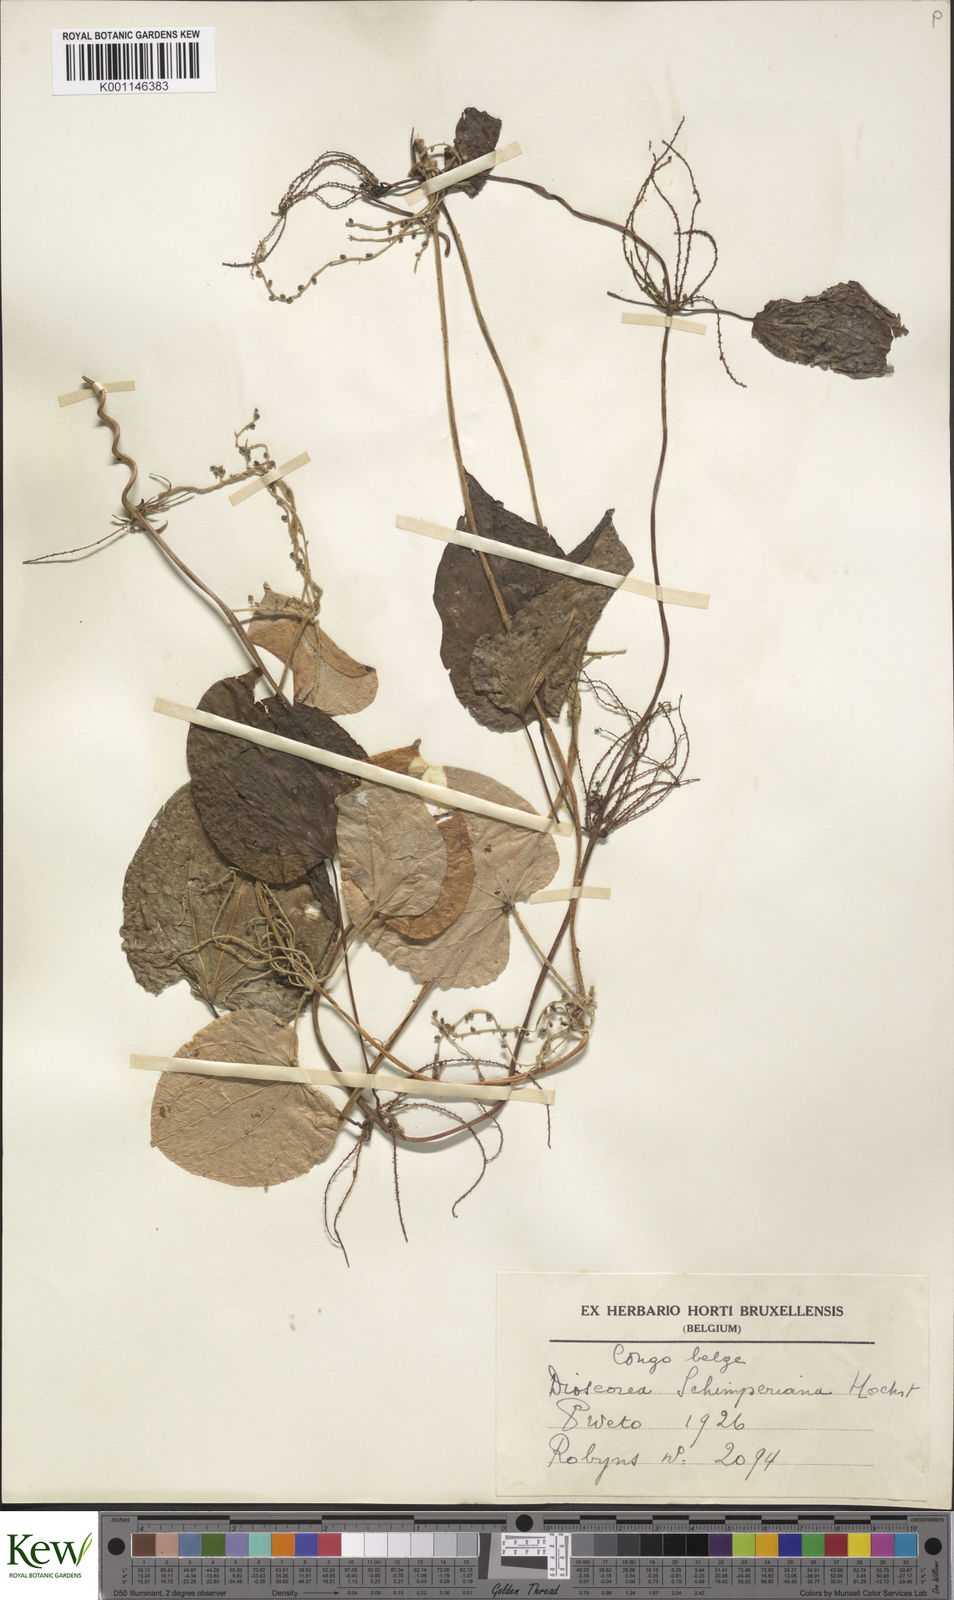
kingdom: Plantae
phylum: Tracheophyta
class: Liliopsida
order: Dioscoreales
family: Dioscoreaceae
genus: Dioscorea
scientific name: Dioscorea schimperiana
